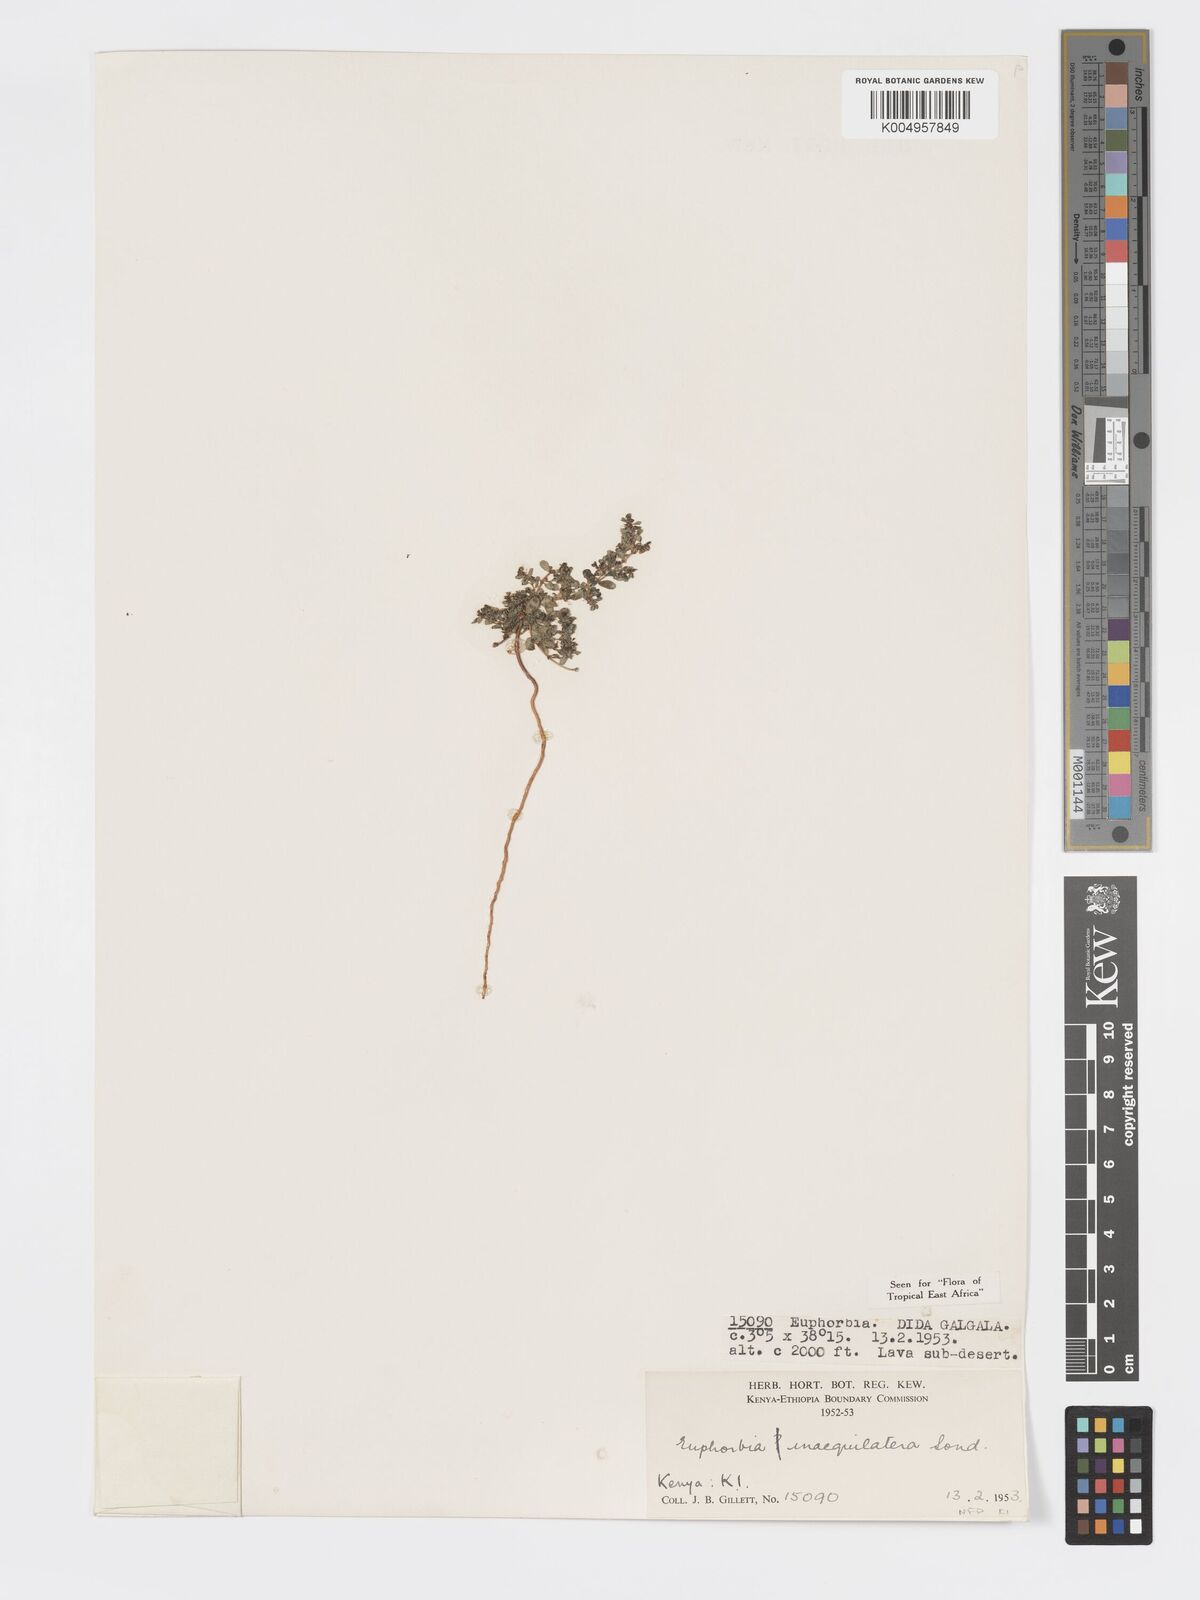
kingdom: Plantae
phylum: Tracheophyta
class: Magnoliopsida
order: Malpighiales
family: Euphorbiaceae
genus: Euphorbia
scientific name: Euphorbia inaequilatera
